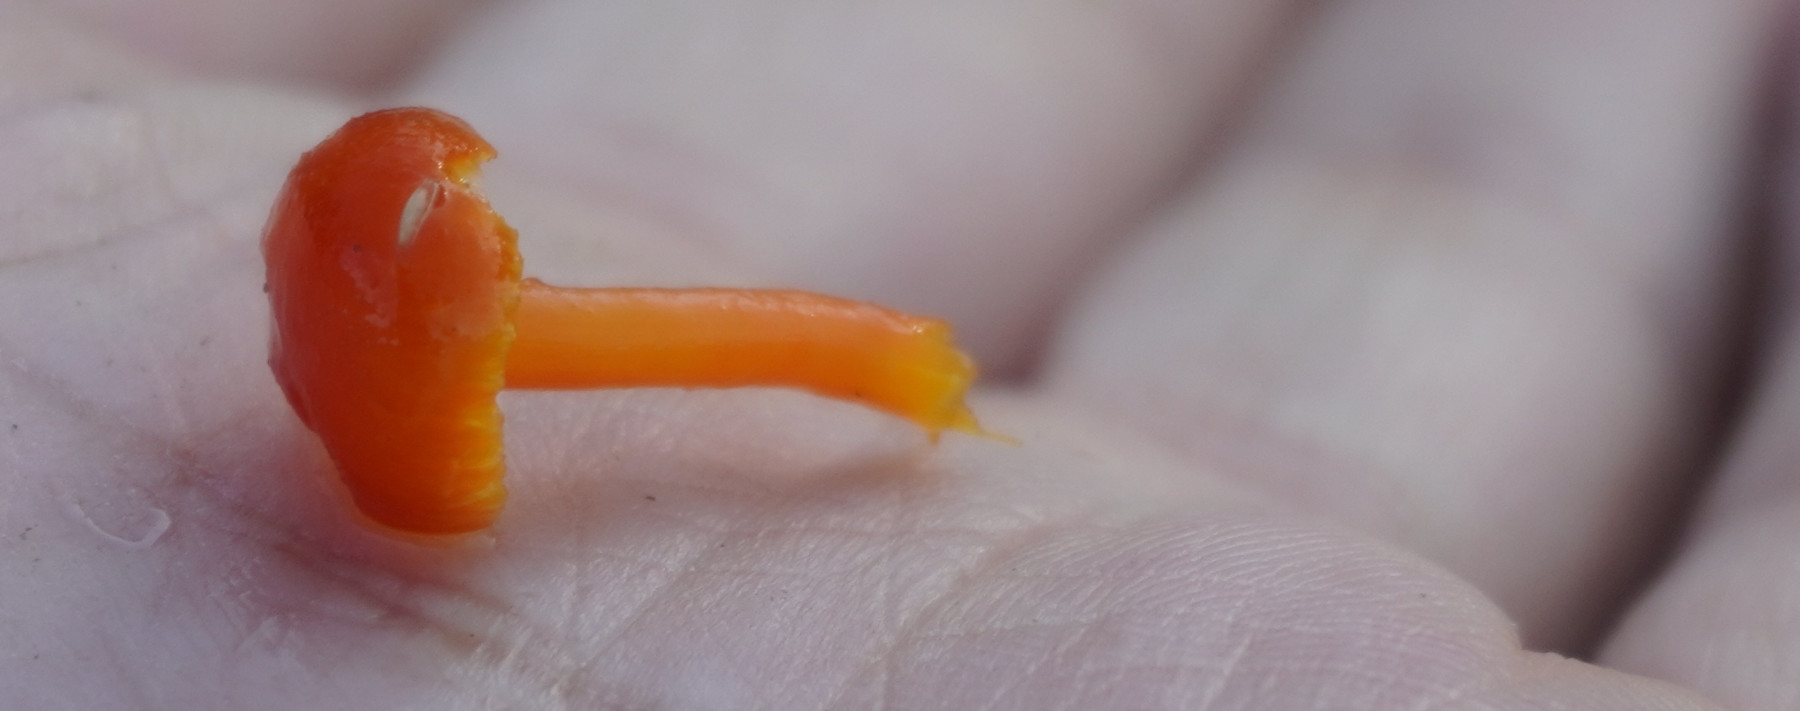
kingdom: Fungi
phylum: Basidiomycota
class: Agaricomycetes
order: Agaricales
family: Hygrophoraceae
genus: Hygrocybe
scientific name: Hygrocybe miniata
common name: mønje-vokshat
